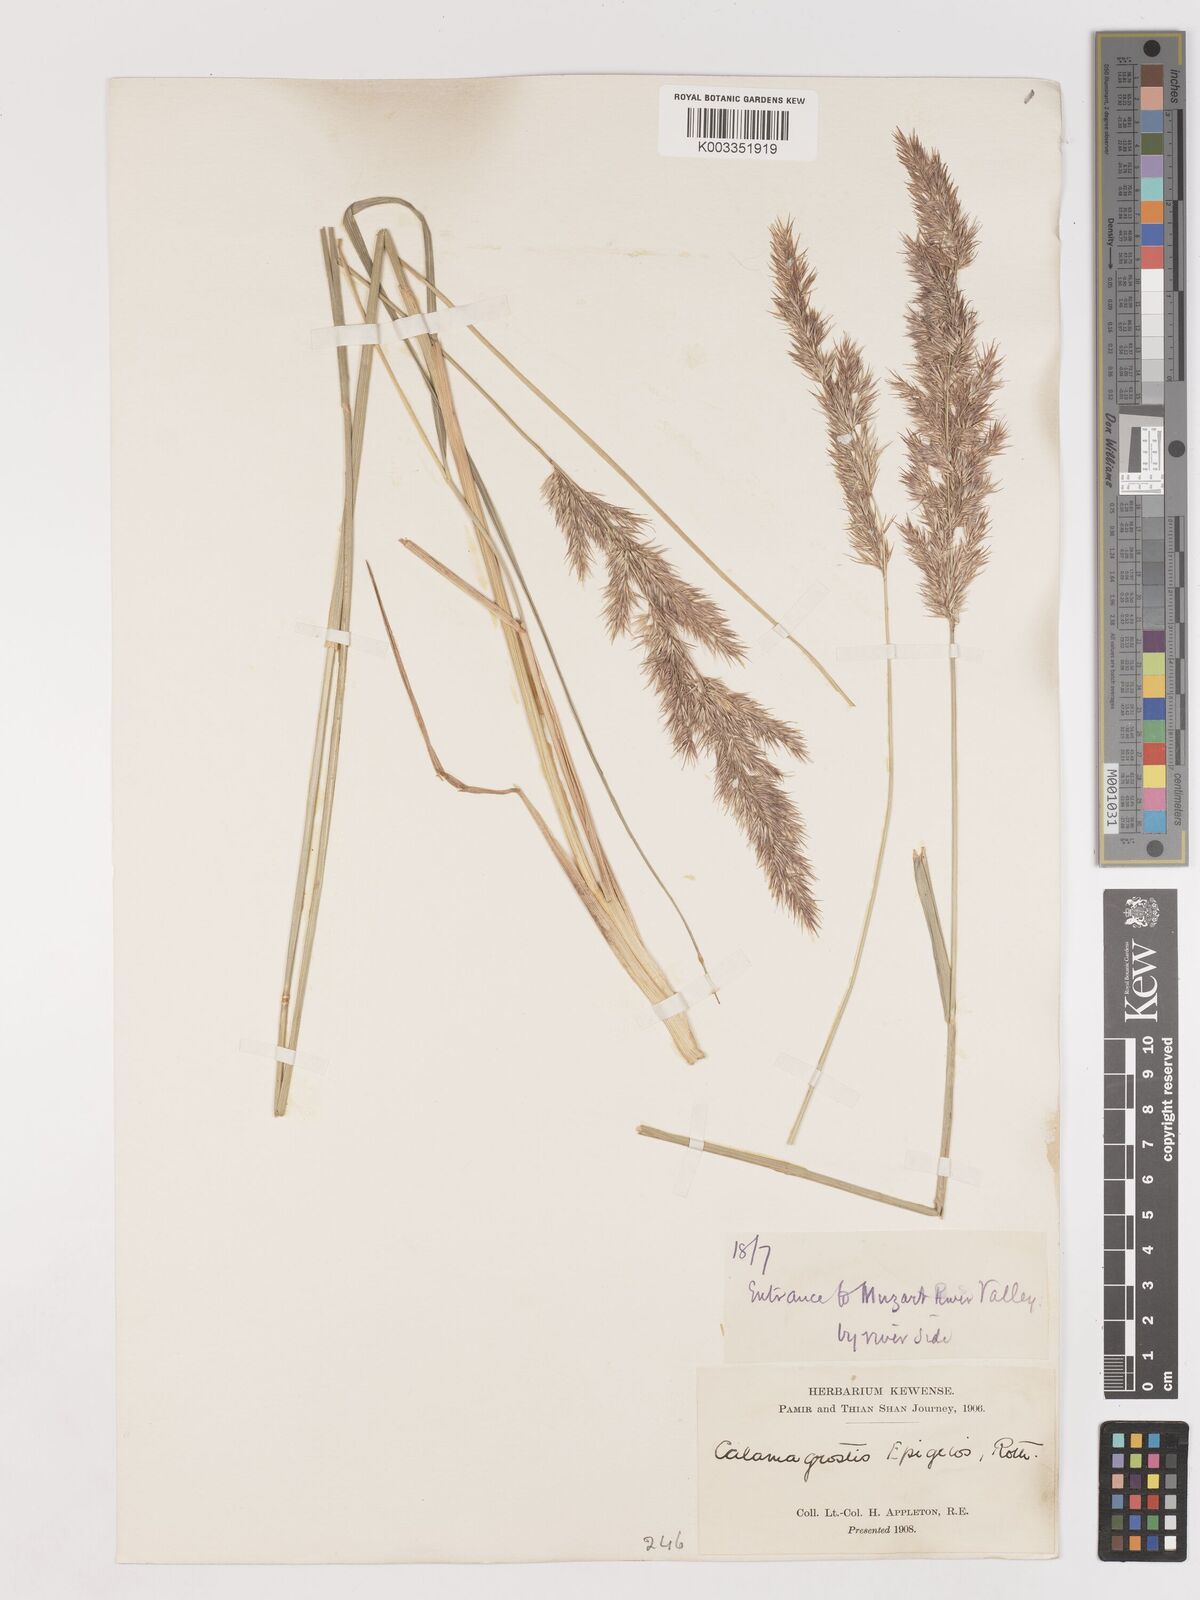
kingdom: Plantae
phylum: Tracheophyta
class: Liliopsida
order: Poales
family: Poaceae
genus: Calamagrostis
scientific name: Calamagrostis epigejos
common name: Wood small-reed
